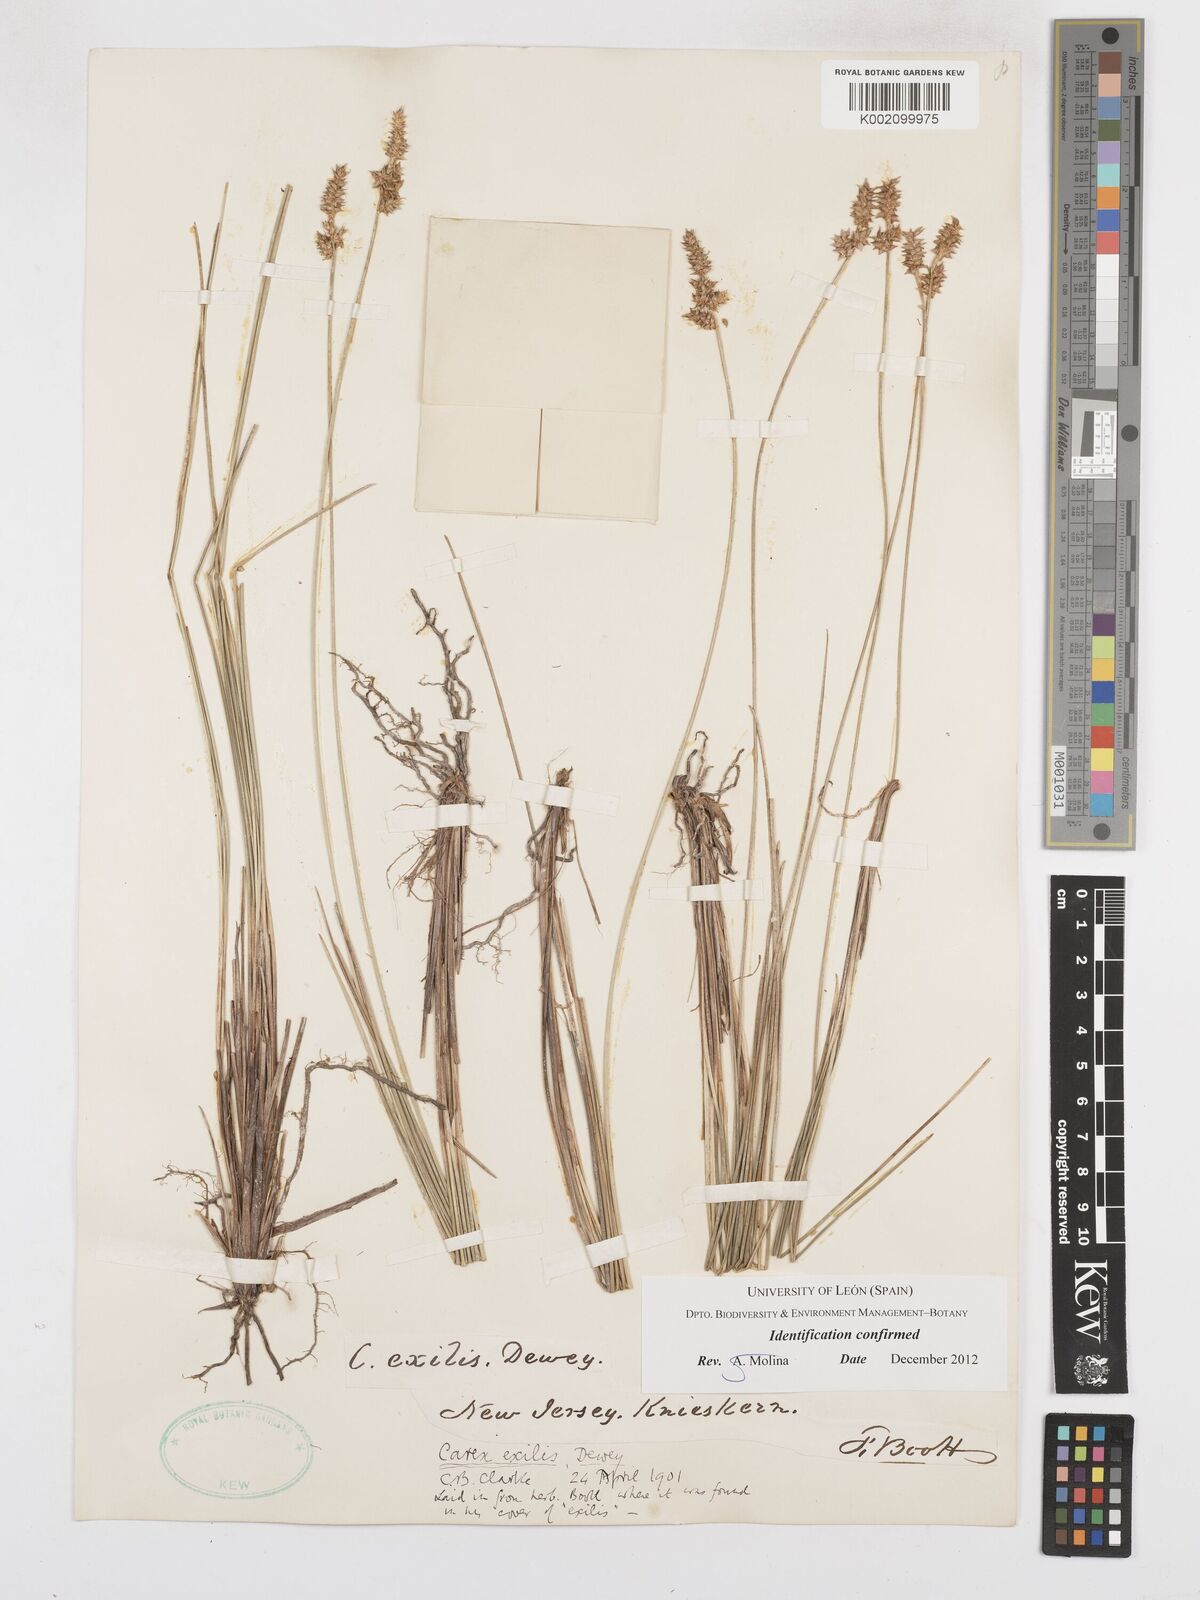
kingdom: Plantae
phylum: Tracheophyta
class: Liliopsida
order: Poales
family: Cyperaceae
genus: Carex
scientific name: Carex exilis
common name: Coastal sedge
